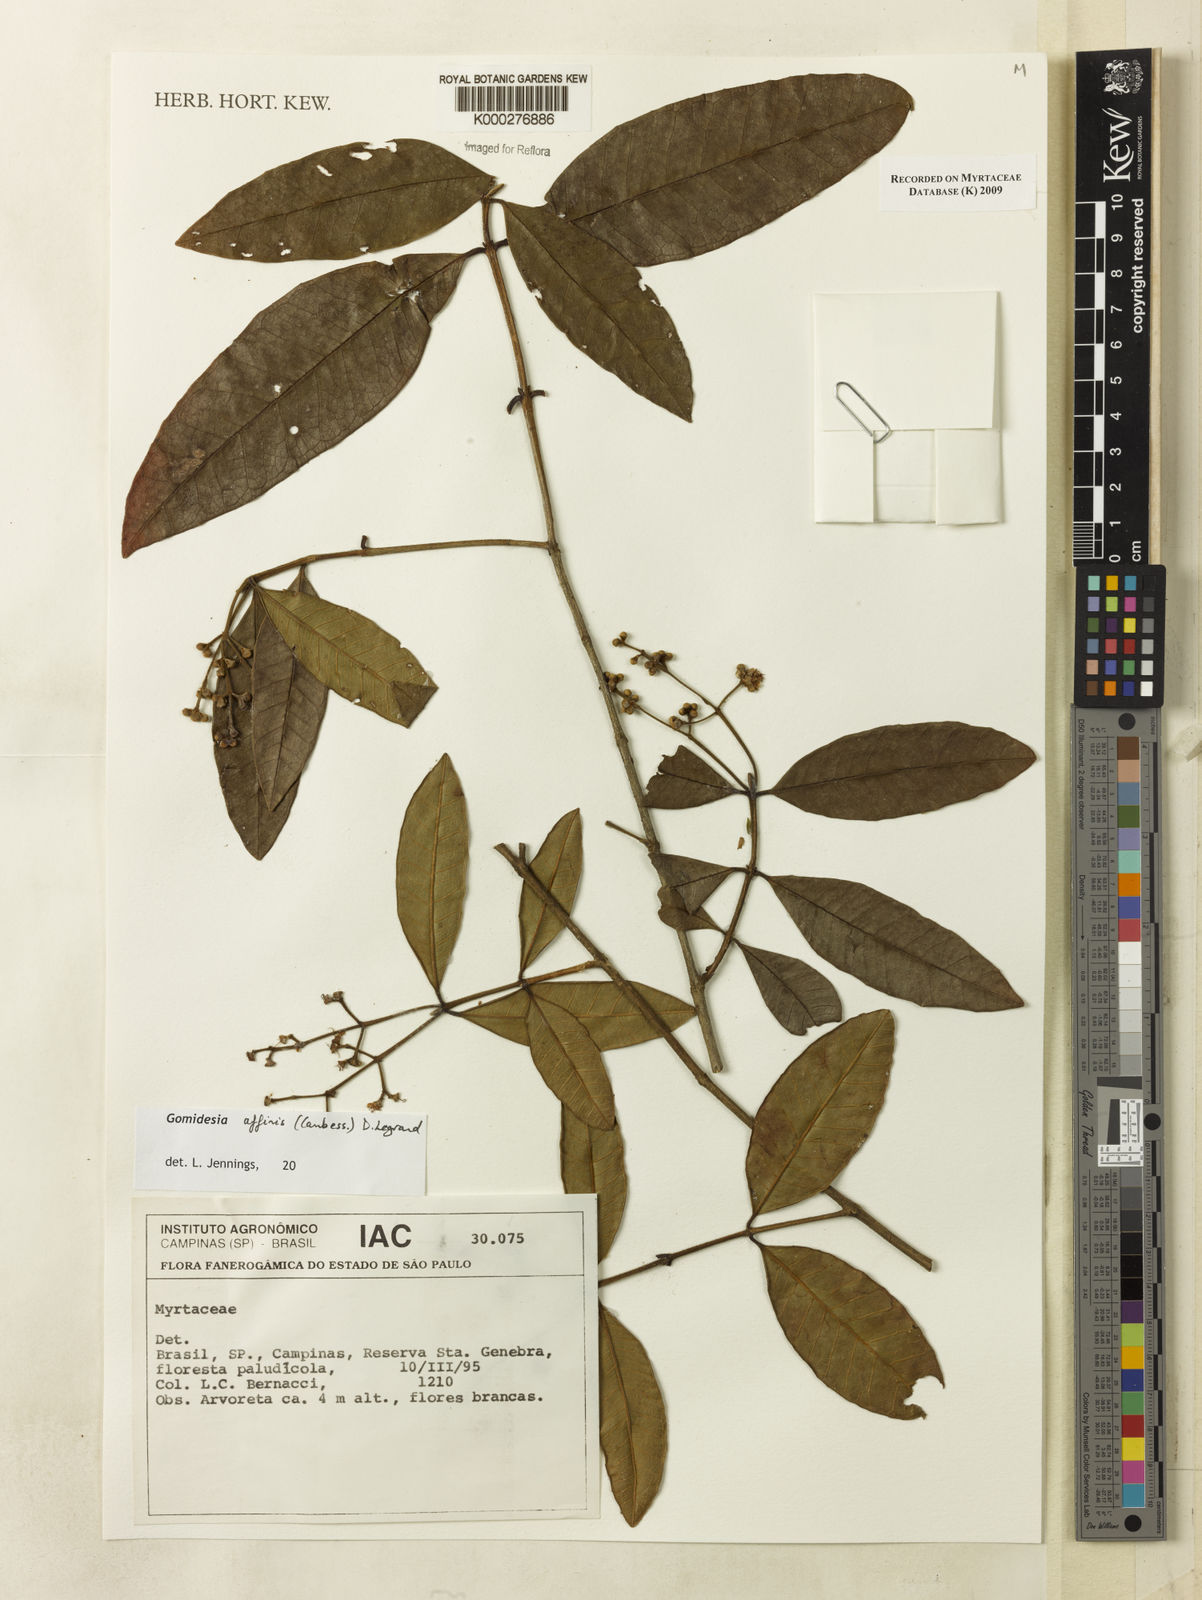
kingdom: Plantae
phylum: Tracheophyta
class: Magnoliopsida
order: Myrtales
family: Myrtaceae
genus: Myrcia
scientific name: Myrcia hebepetala
